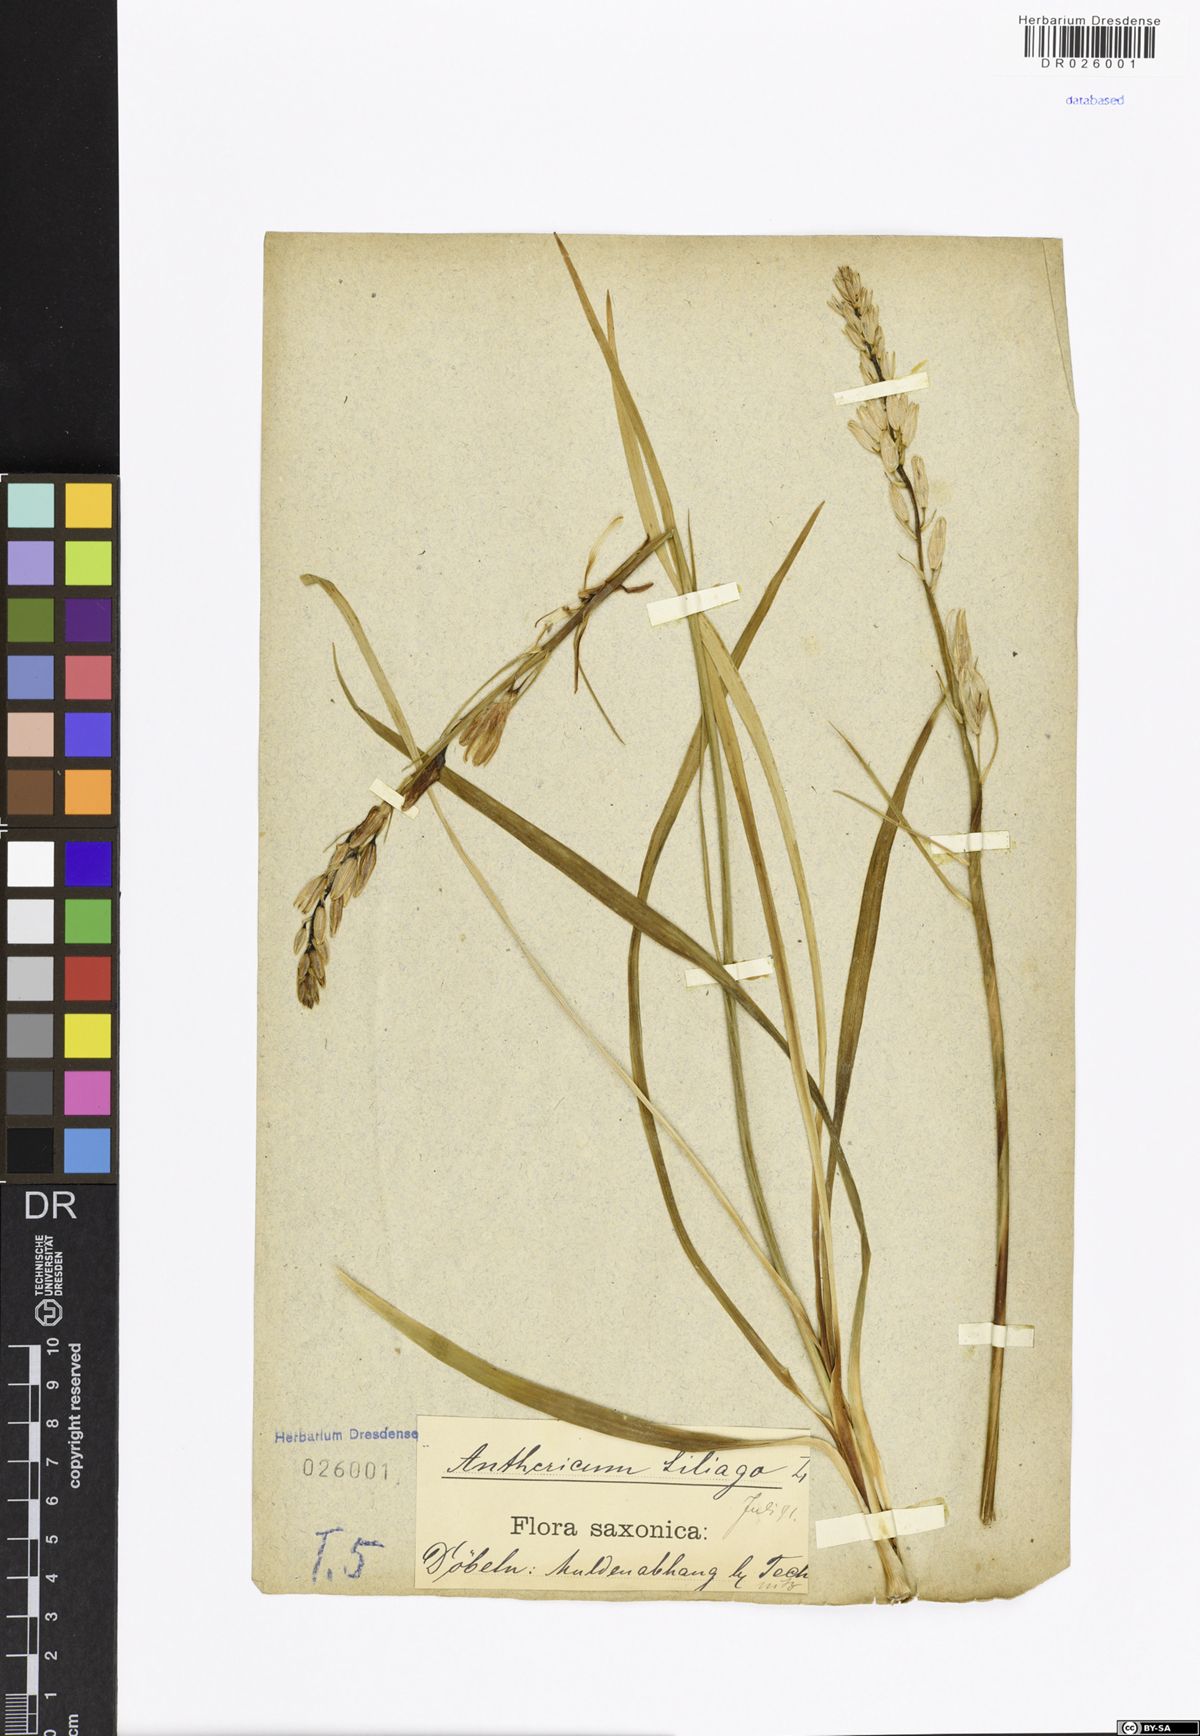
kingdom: Plantae
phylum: Tracheophyta
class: Liliopsida
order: Asparagales
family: Asparagaceae
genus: Anthericum
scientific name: Anthericum liliago
